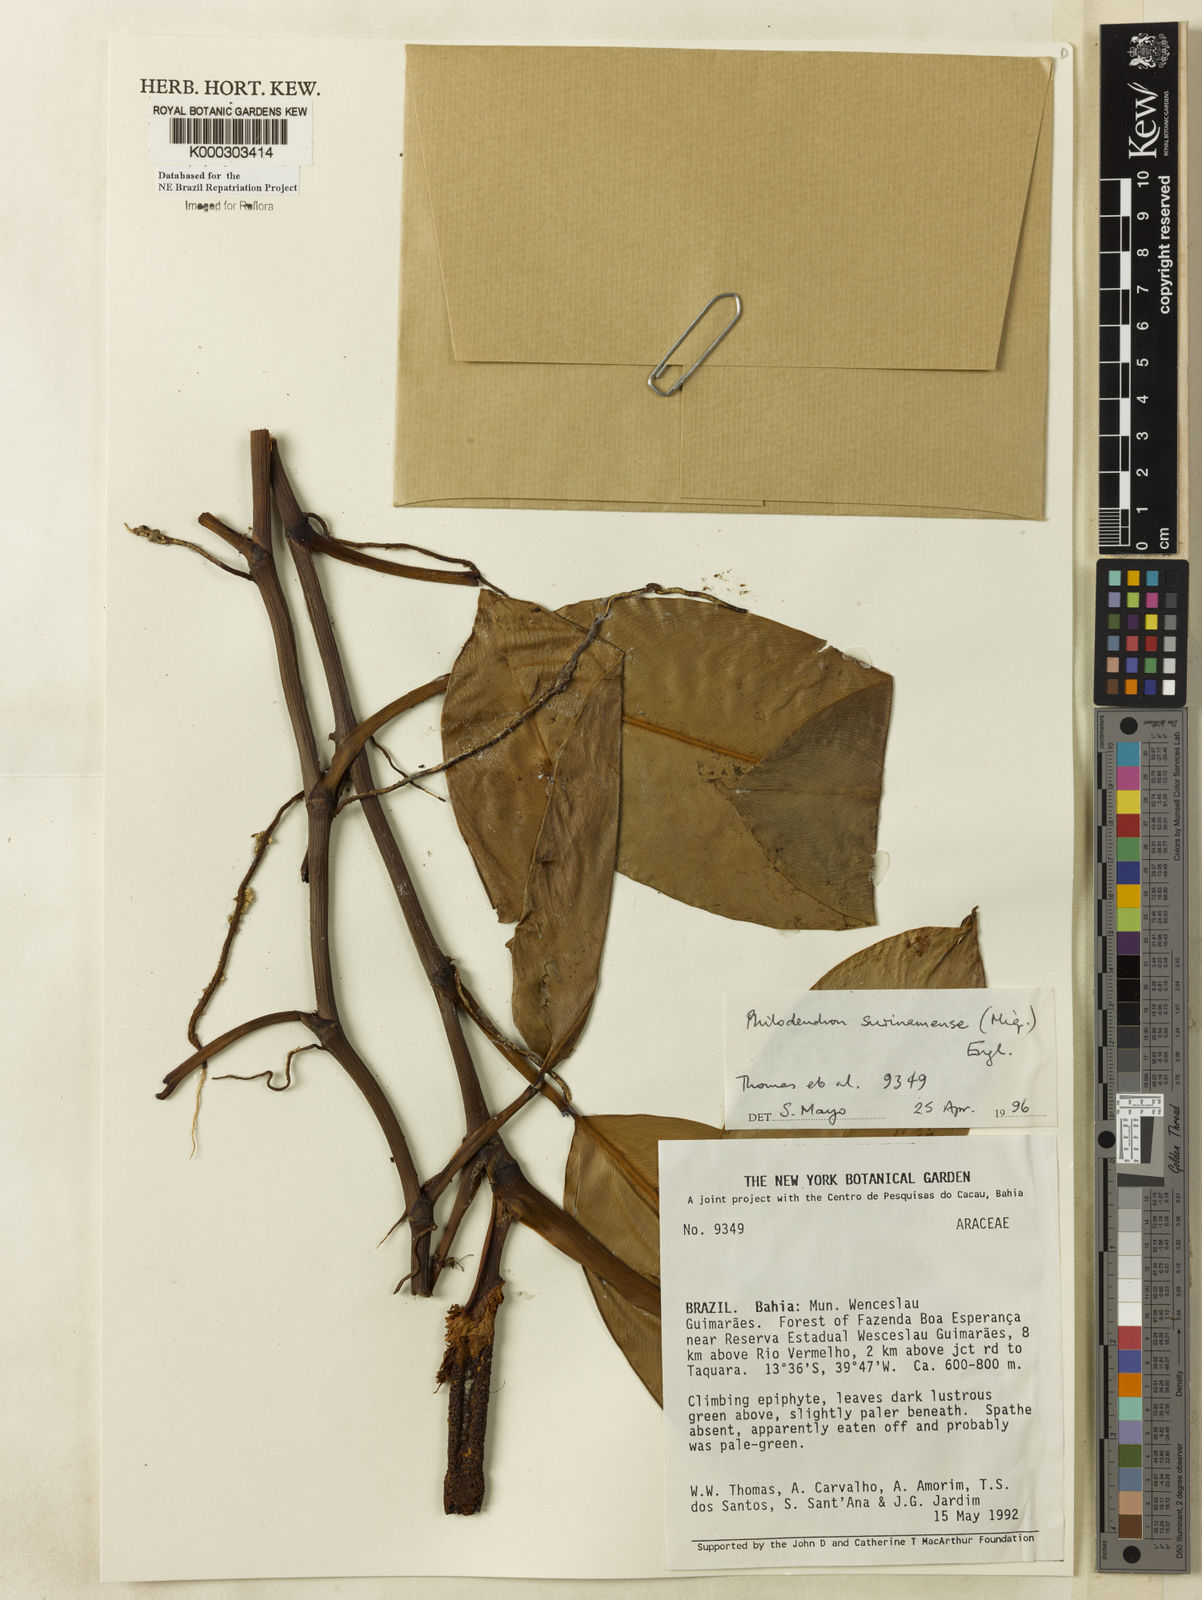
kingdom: Plantae
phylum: Tracheophyta
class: Liliopsida
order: Alismatales
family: Araceae
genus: Philodendron
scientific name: Philodendron surinamense
